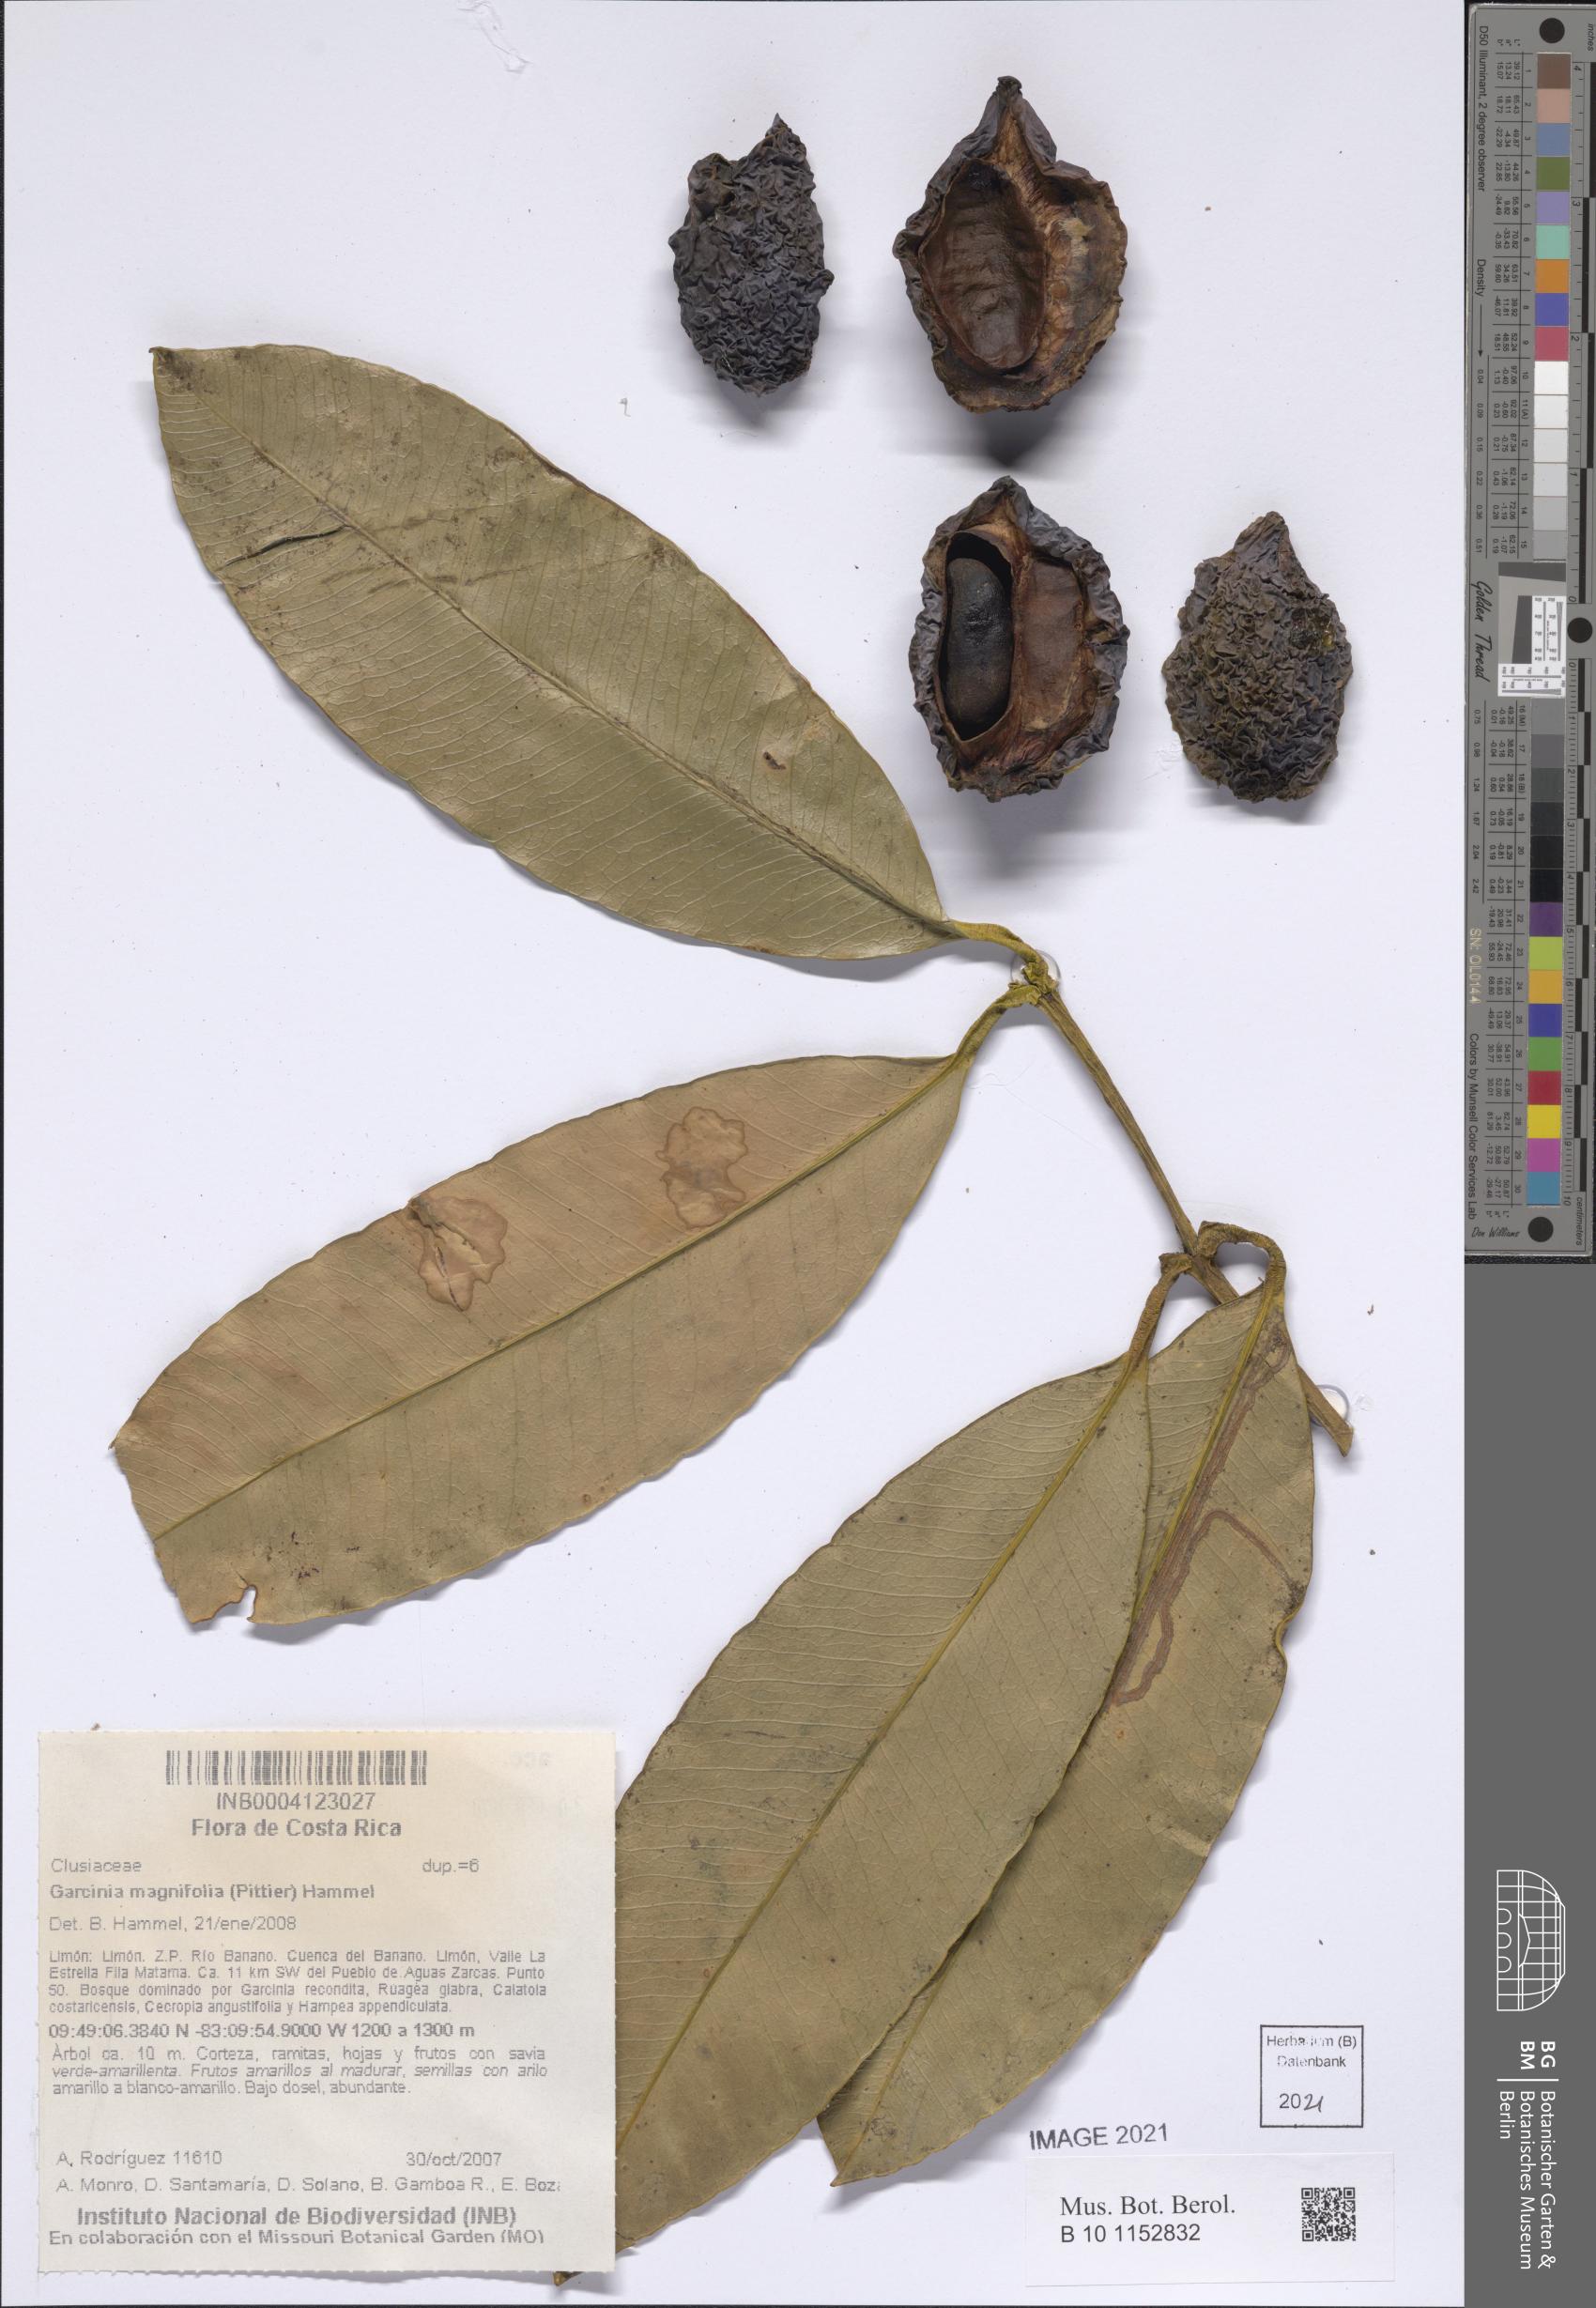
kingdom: Plantae
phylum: Tracheophyta
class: Magnoliopsida
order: Malpighiales
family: Clusiaceae
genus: Garcinia
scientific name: Garcinia magnifolia
